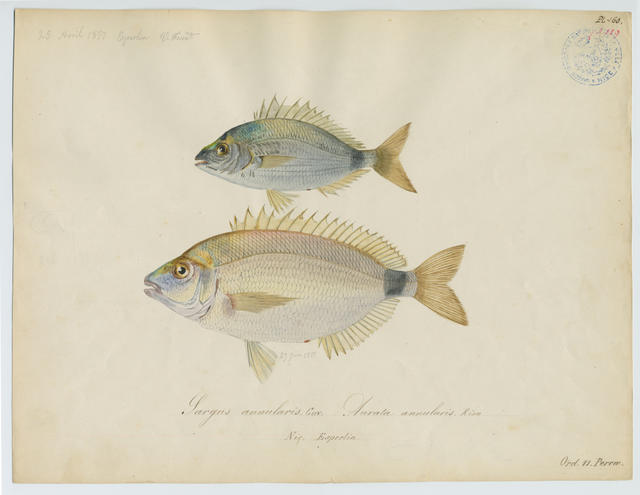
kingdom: Animalia
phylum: Chordata
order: Perciformes
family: Sparidae
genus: Diplodus
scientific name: Diplodus annularis
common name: Annular seabream
